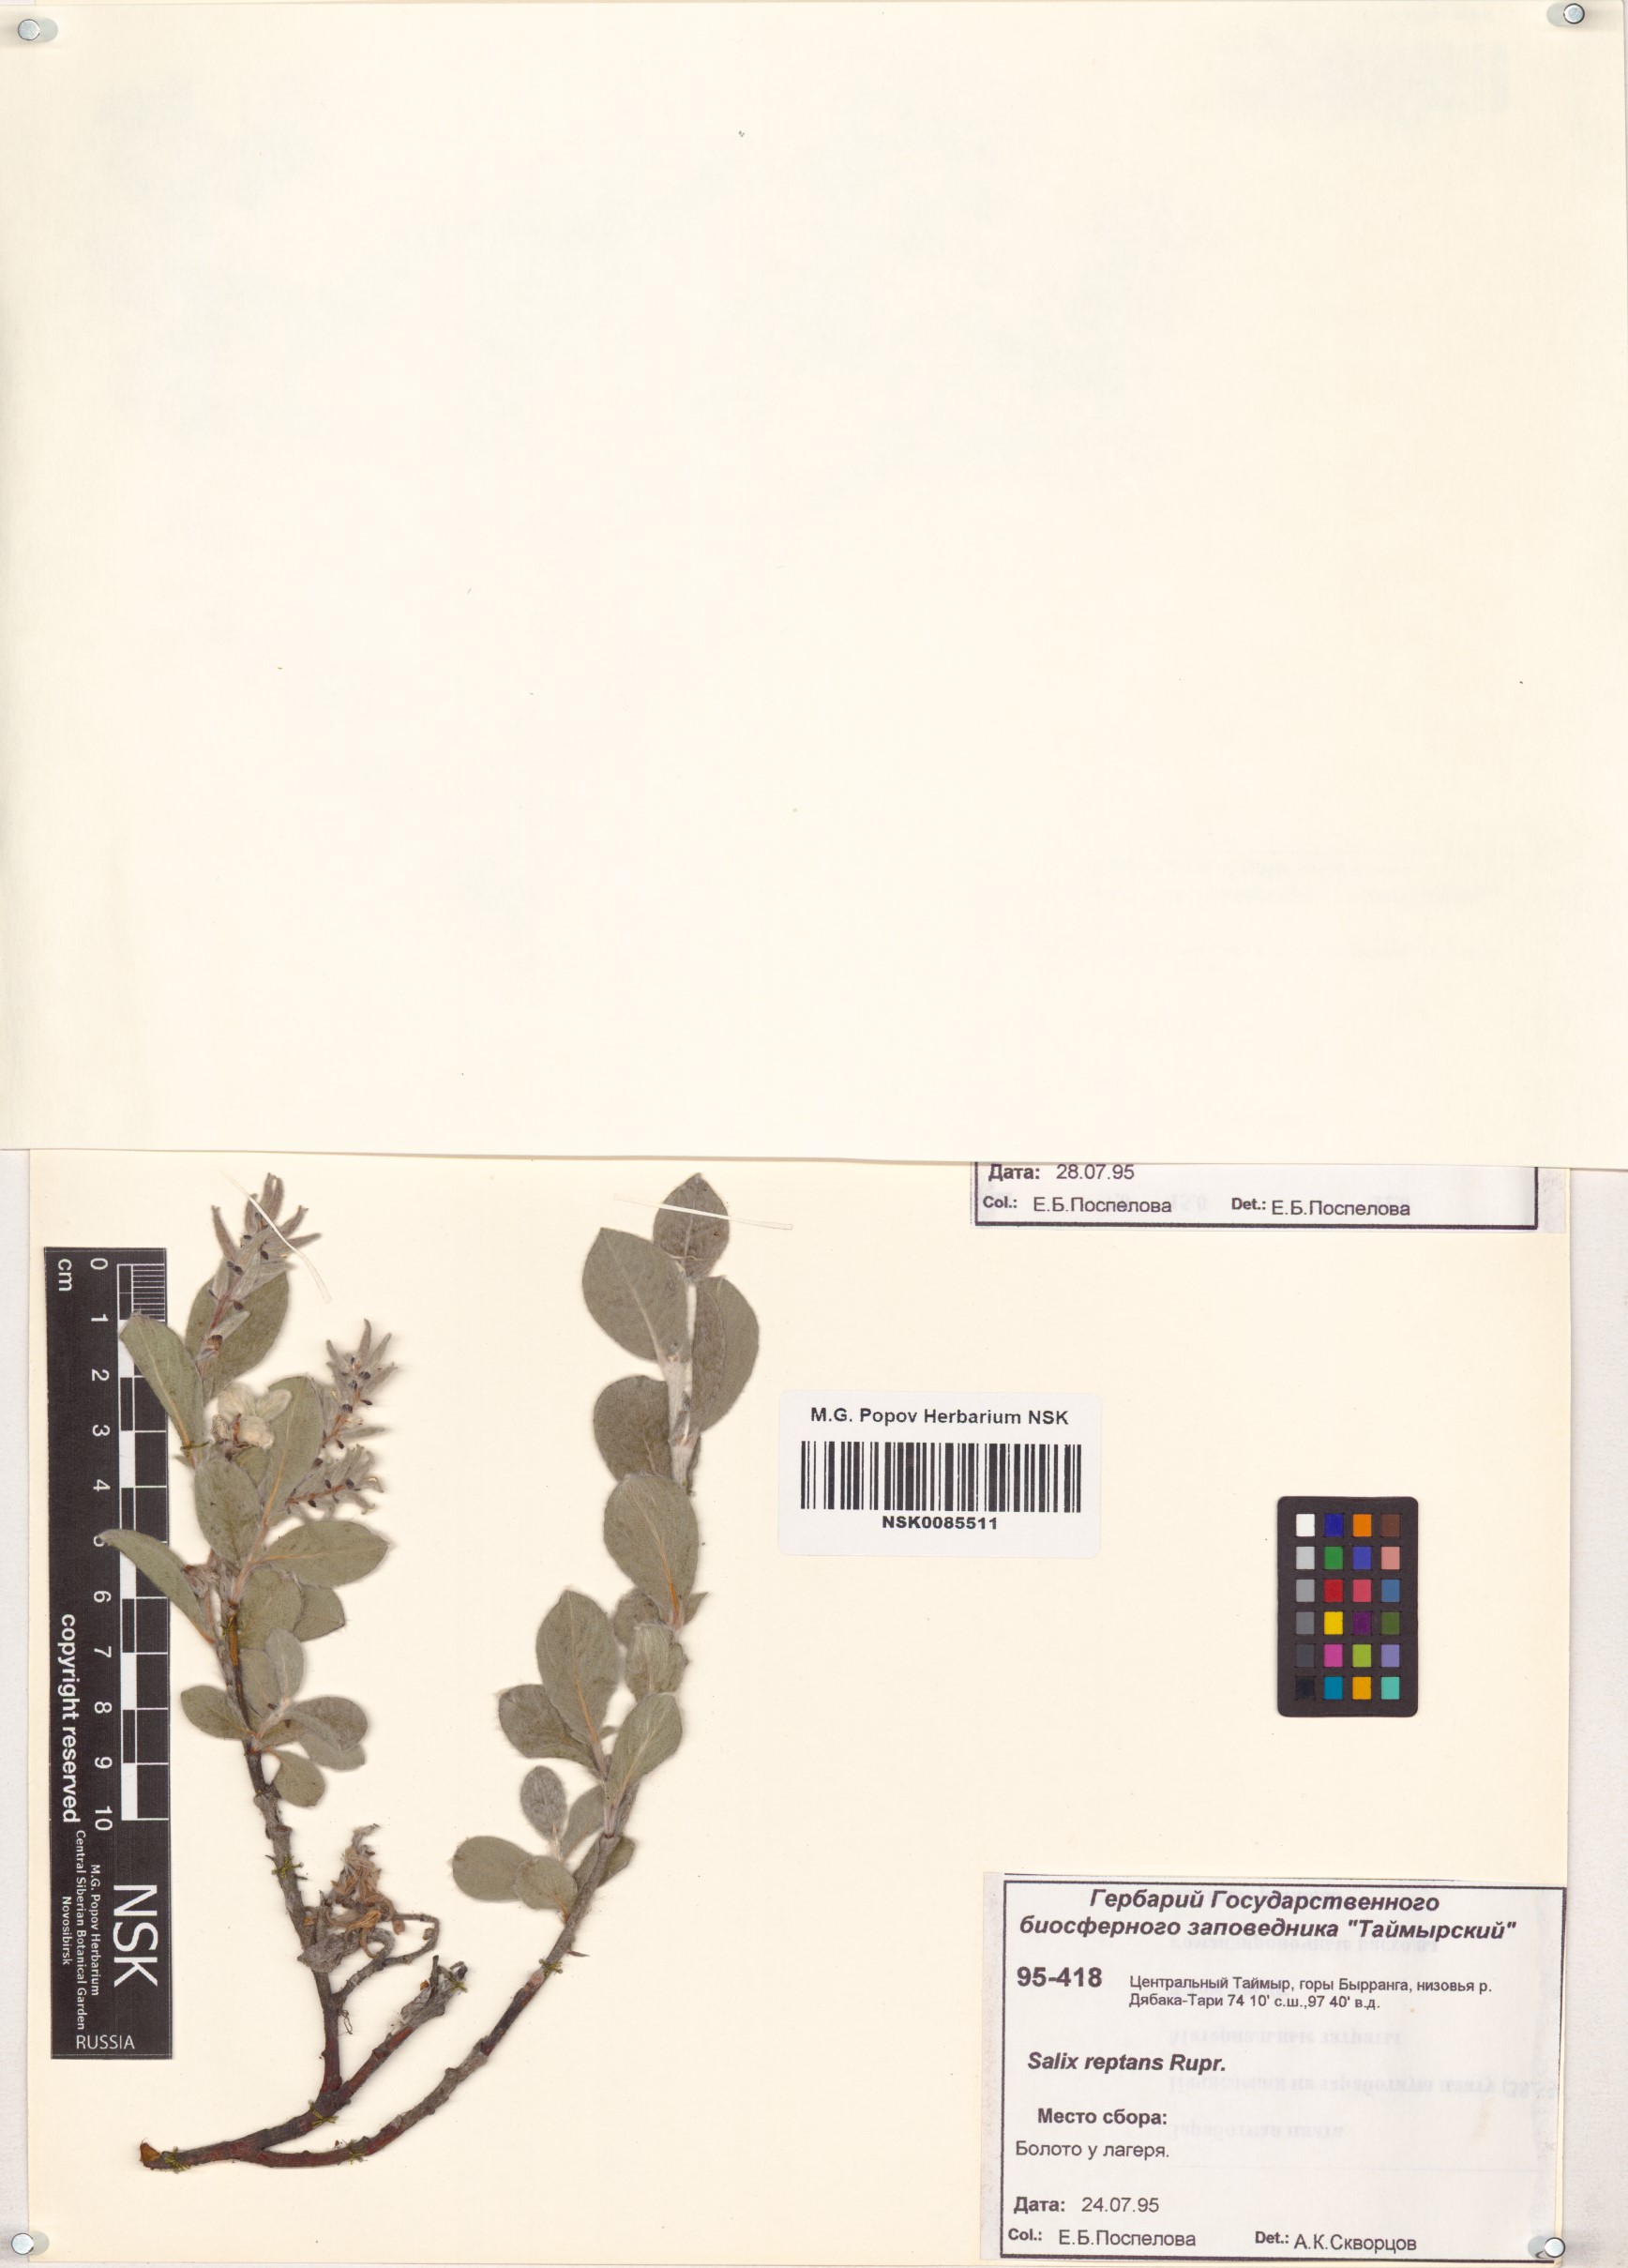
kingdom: Plantae
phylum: Tracheophyta
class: Magnoliopsida
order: Malpighiales
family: Salicaceae
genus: Salix
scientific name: Salix reptans
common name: Arctic creeping willow
